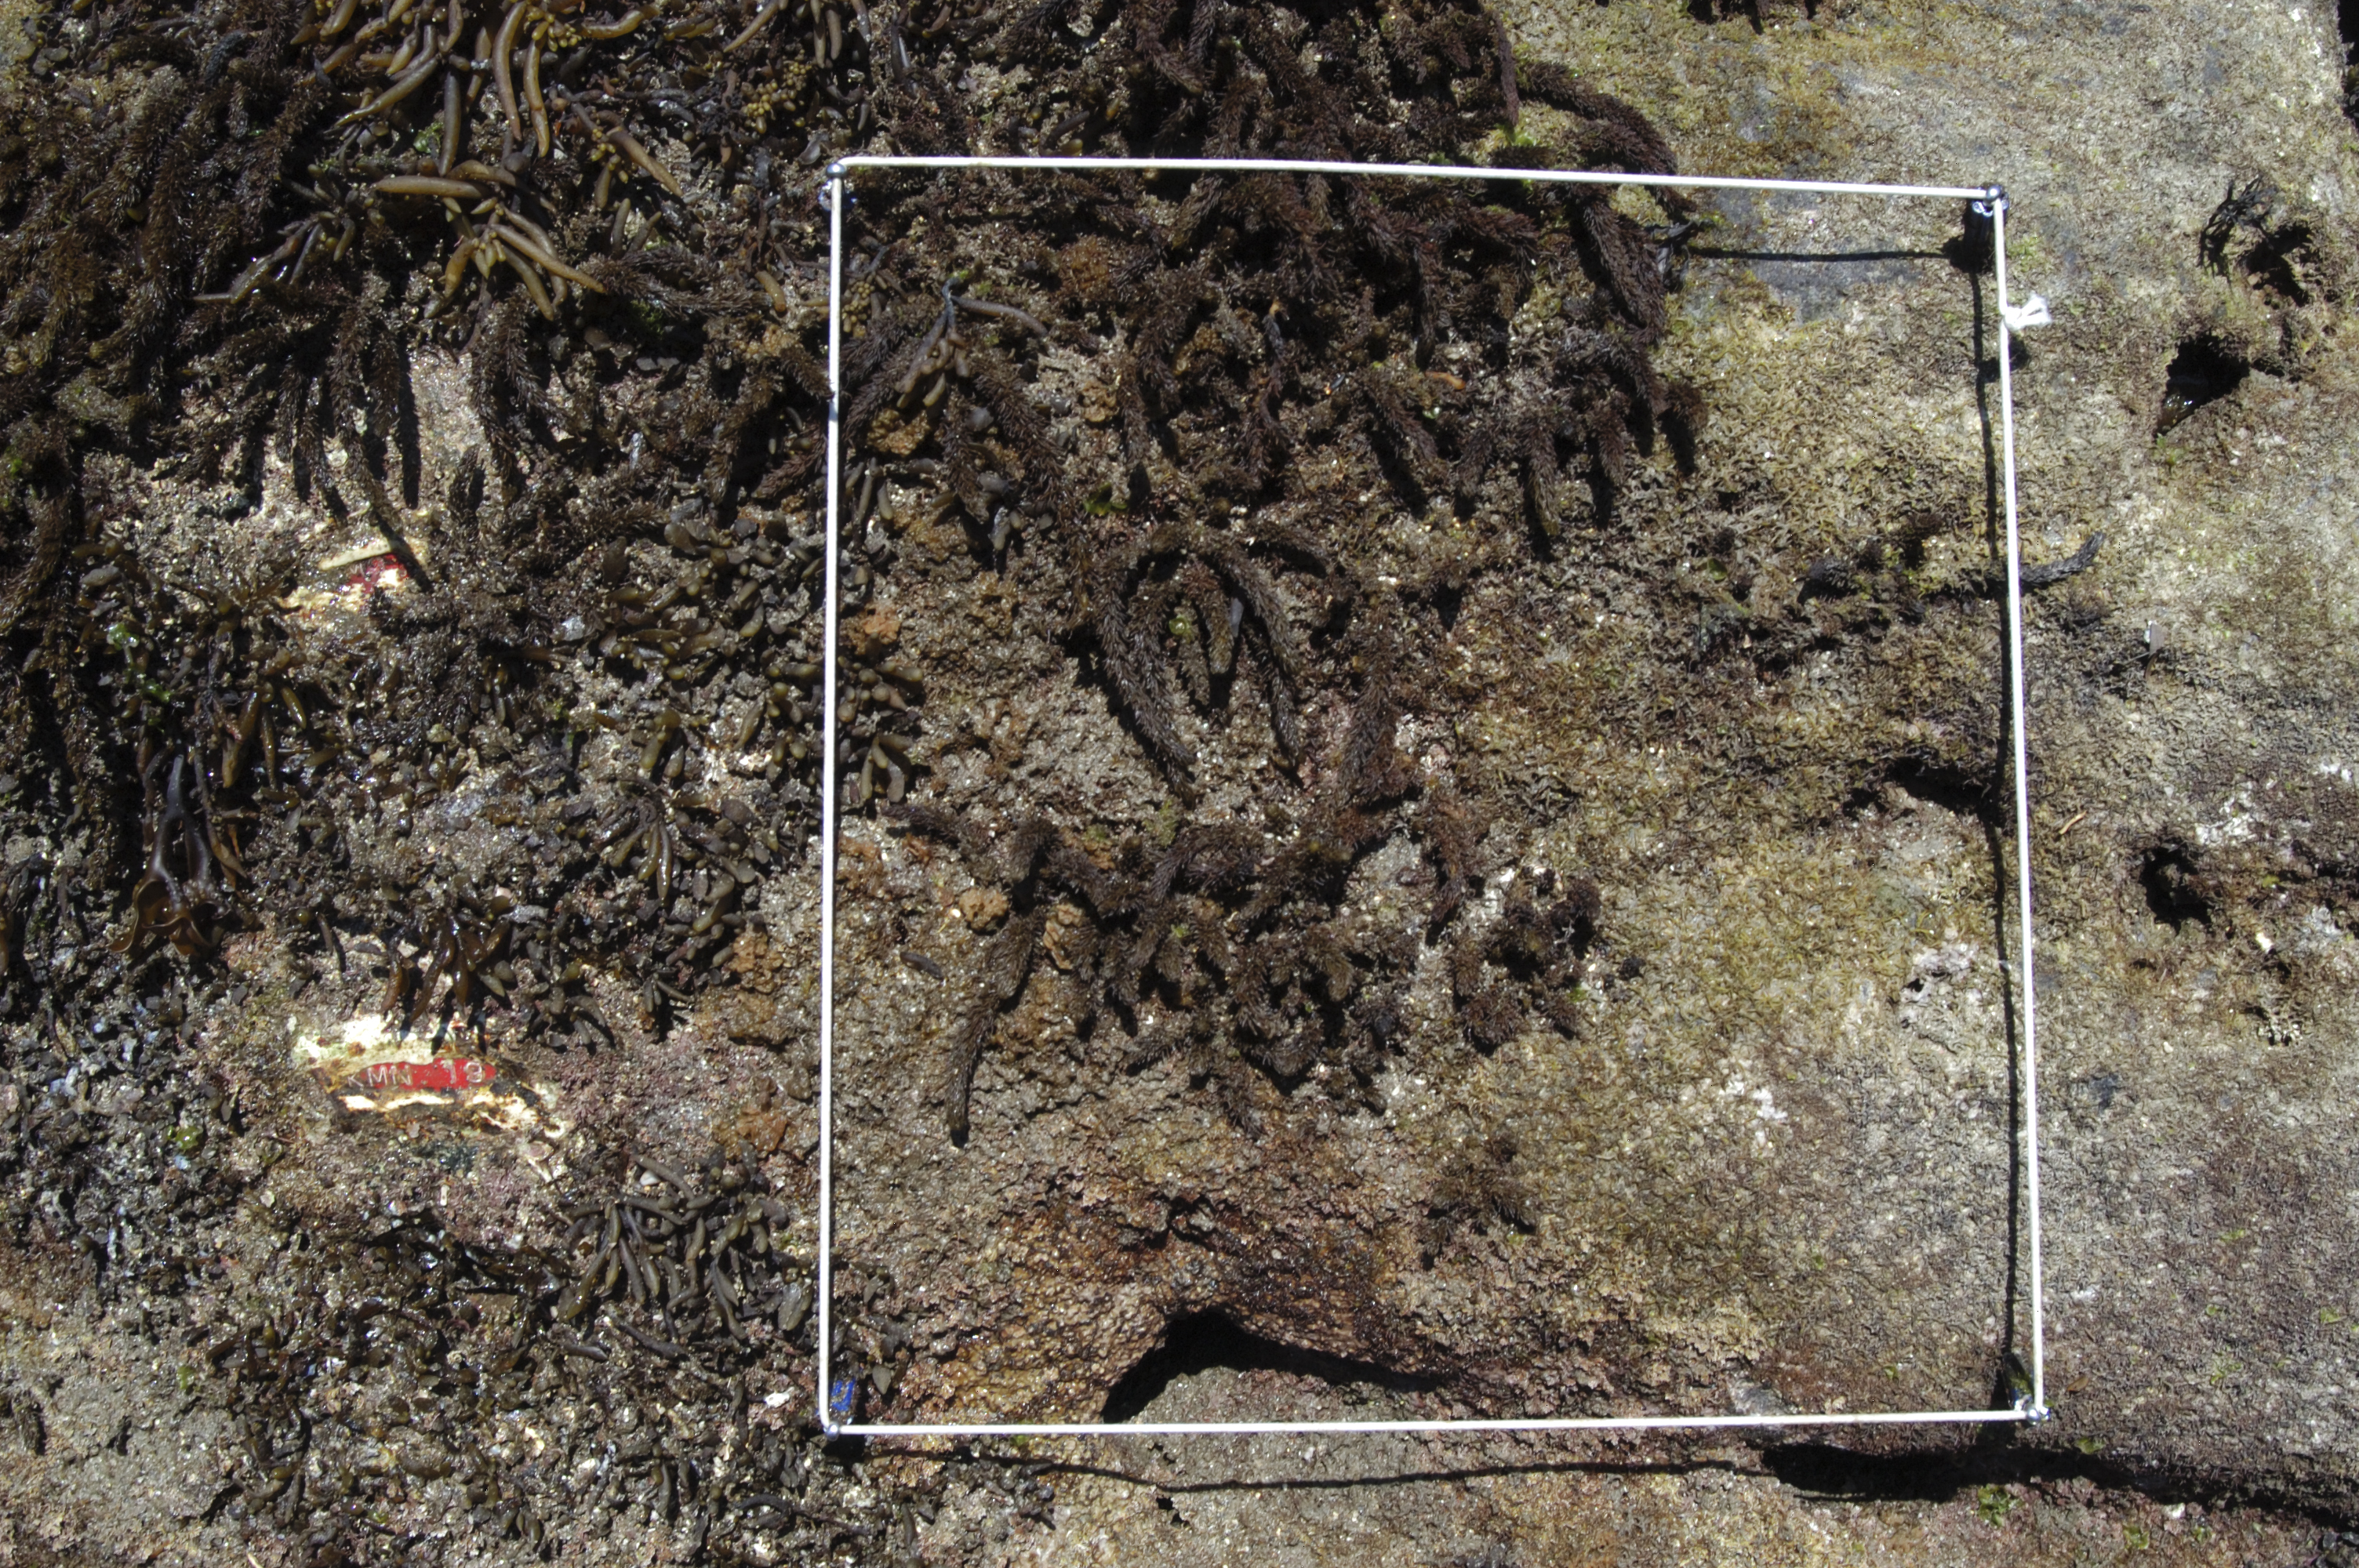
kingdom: Chromista
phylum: Ochrophyta
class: Phaeophyceae
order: Fucales
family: Sargassaceae
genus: Sargassum
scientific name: Sargassum fusiforme
